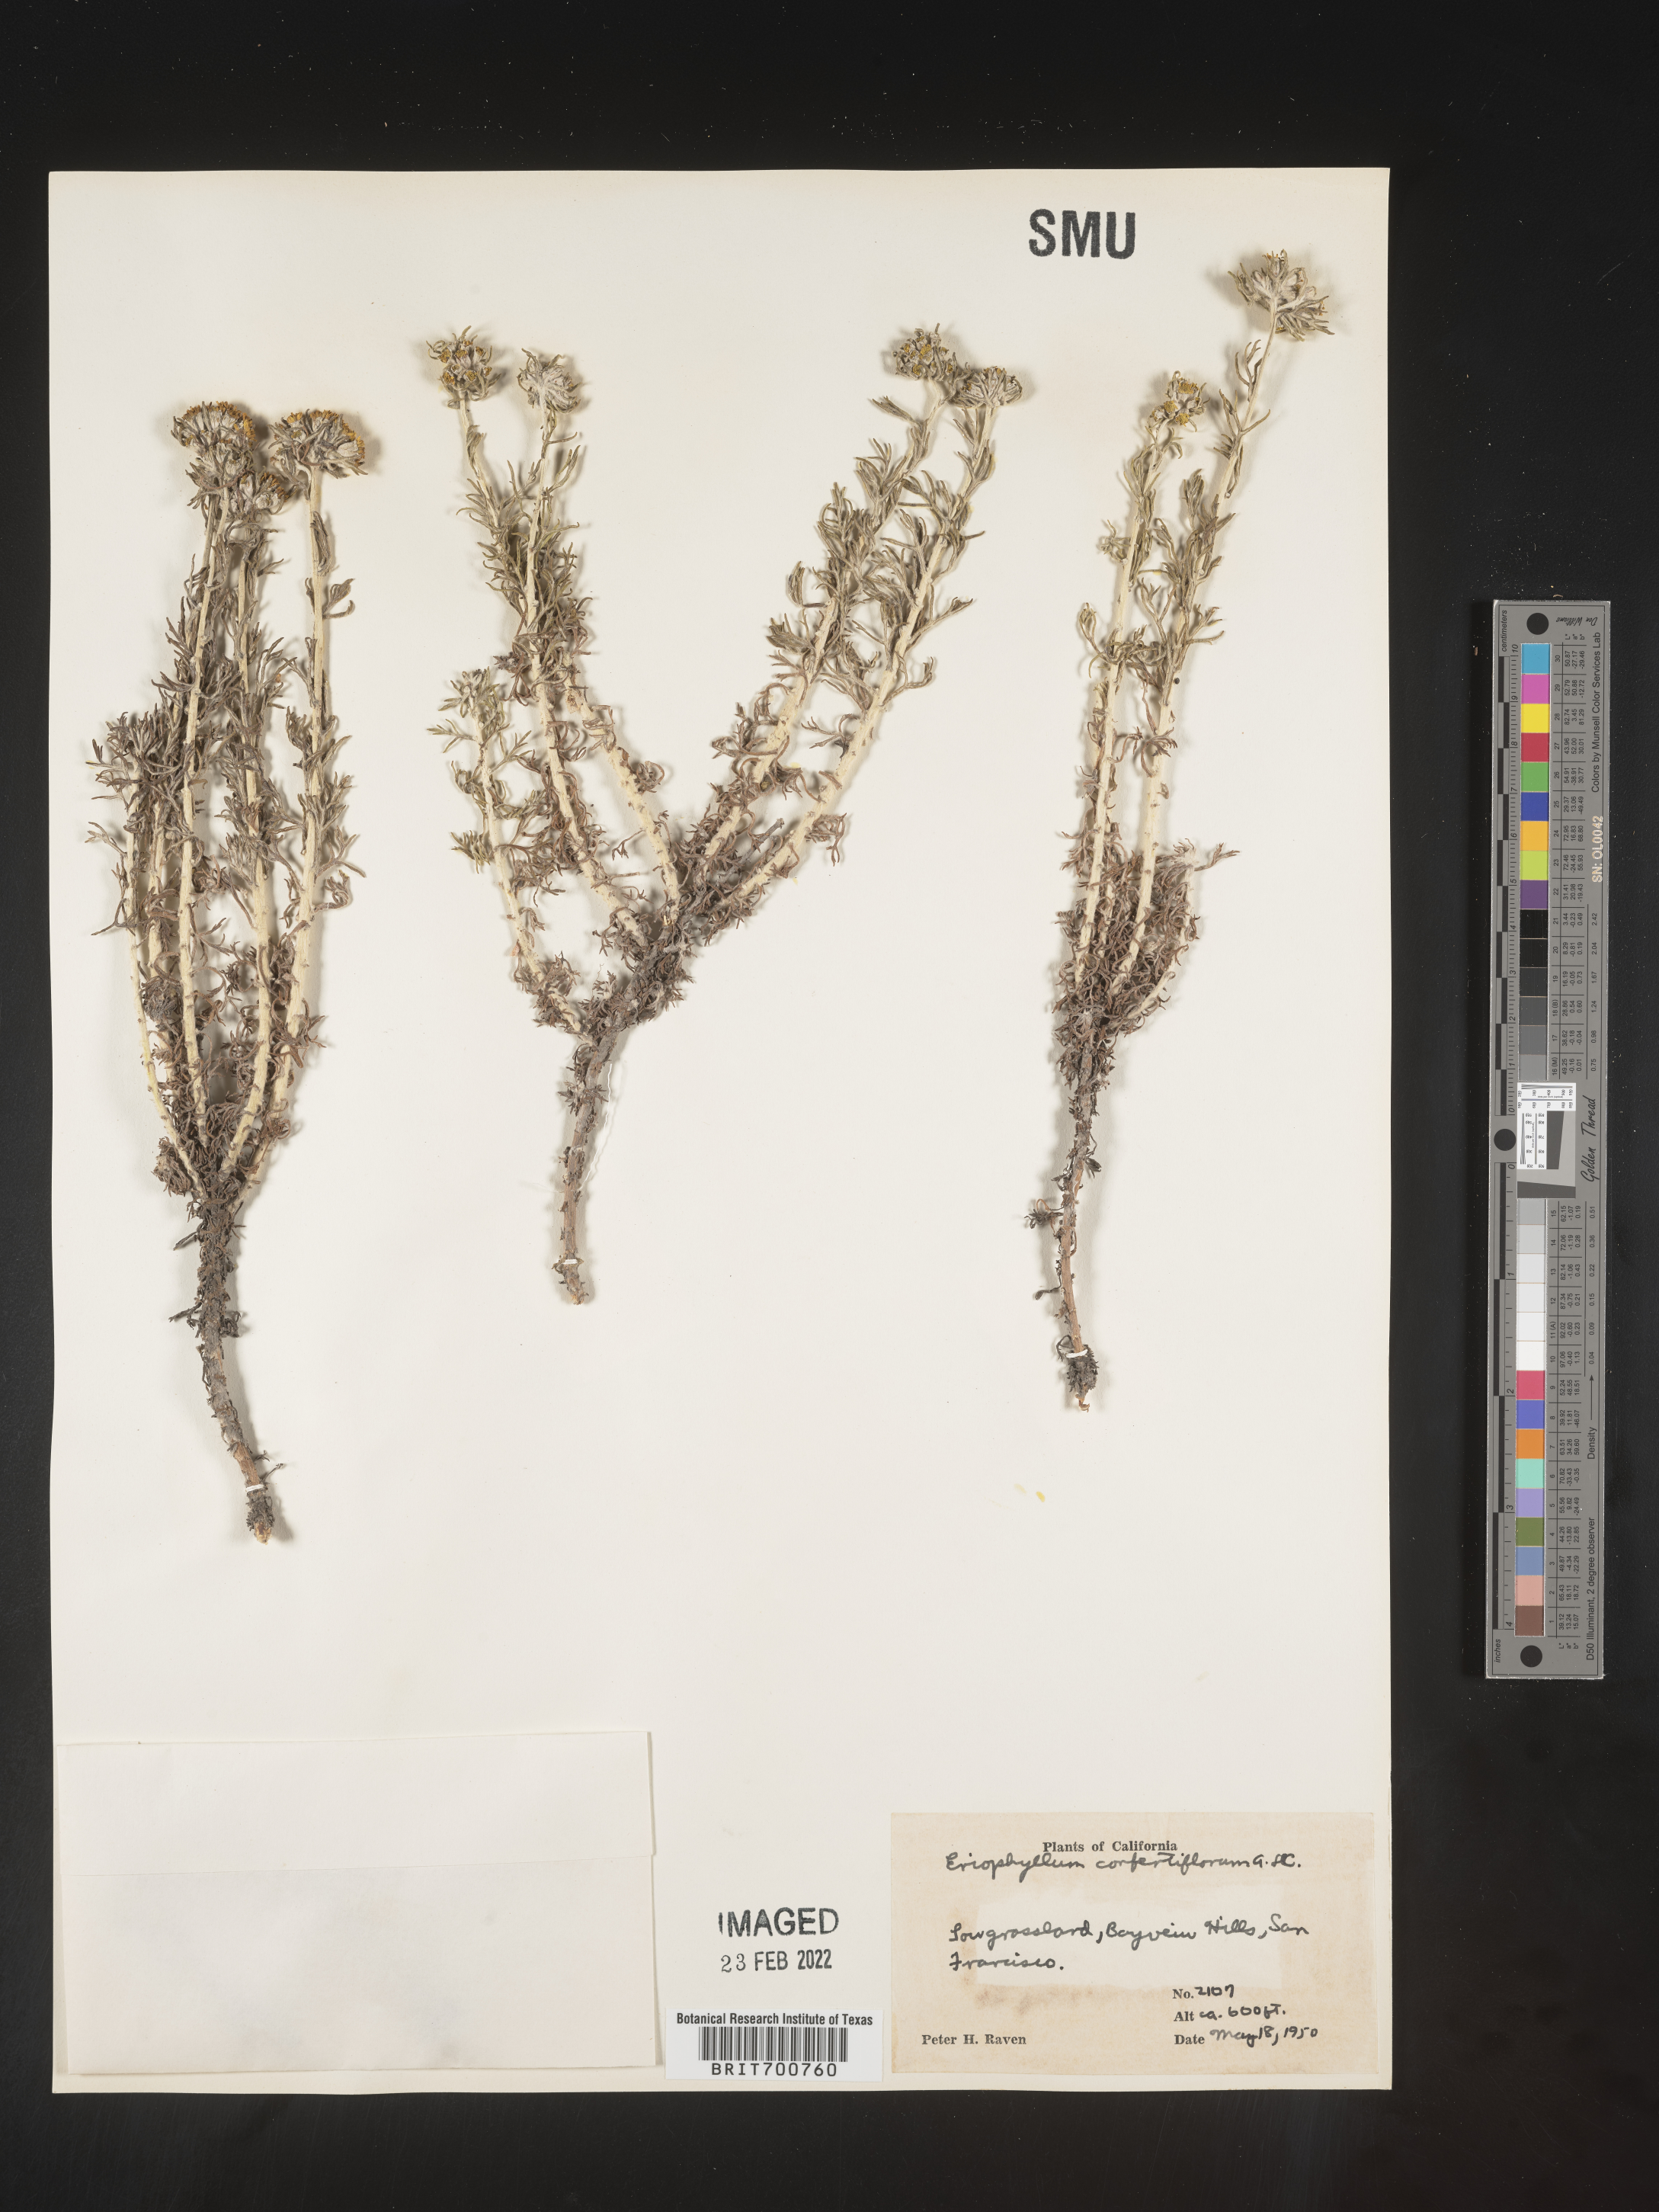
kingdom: Plantae
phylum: Tracheophyta
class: Magnoliopsida
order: Asterales
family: Asteraceae
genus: Eriophyllum
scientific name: Eriophyllum confertiflorum
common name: Golden-yarrow
